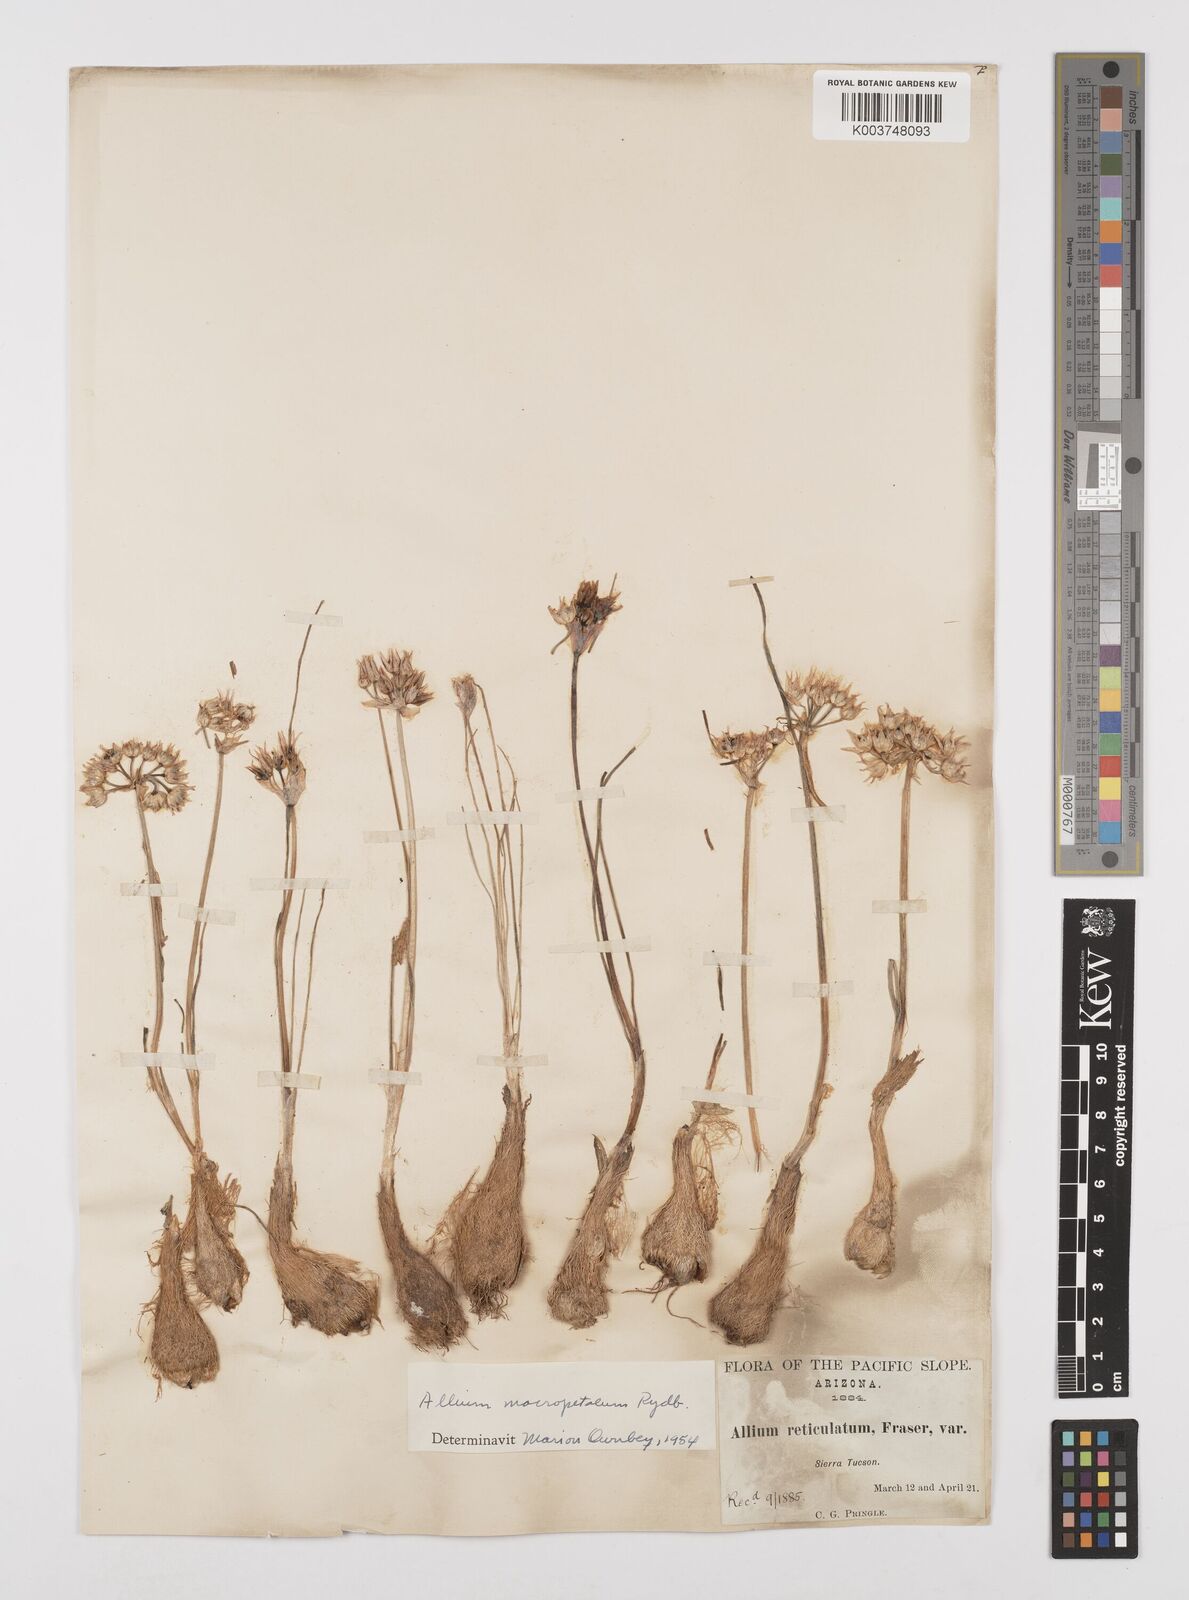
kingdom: Plantae
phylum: Tracheophyta
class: Liliopsida
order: Asparagales
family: Amaryllidaceae
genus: Allium
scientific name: Allium macropetalum
